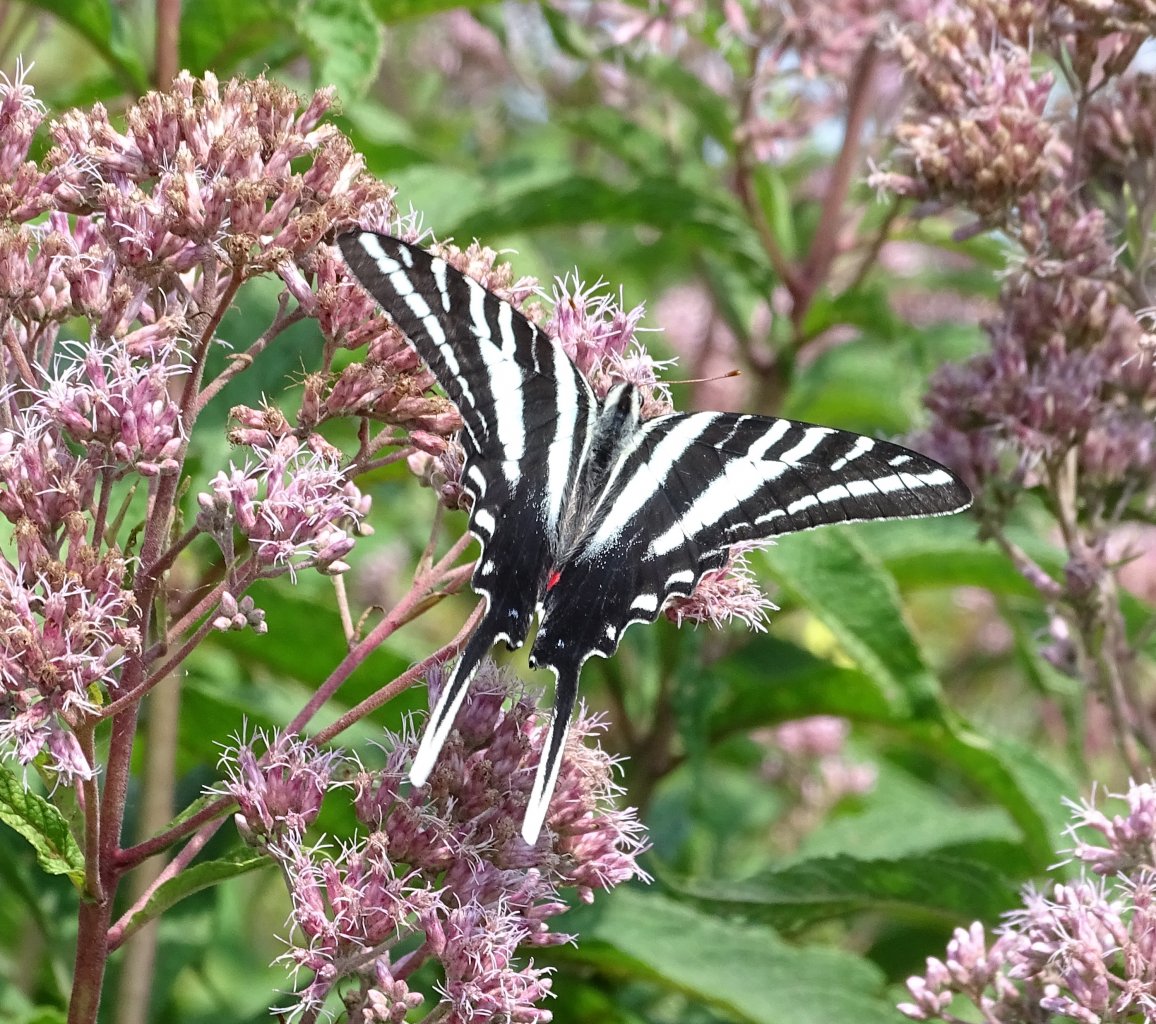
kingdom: Animalia
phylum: Arthropoda
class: Insecta
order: Lepidoptera
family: Papilionidae
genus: Protographium
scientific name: Protographium marcellus
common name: Zebra Swallowtail
